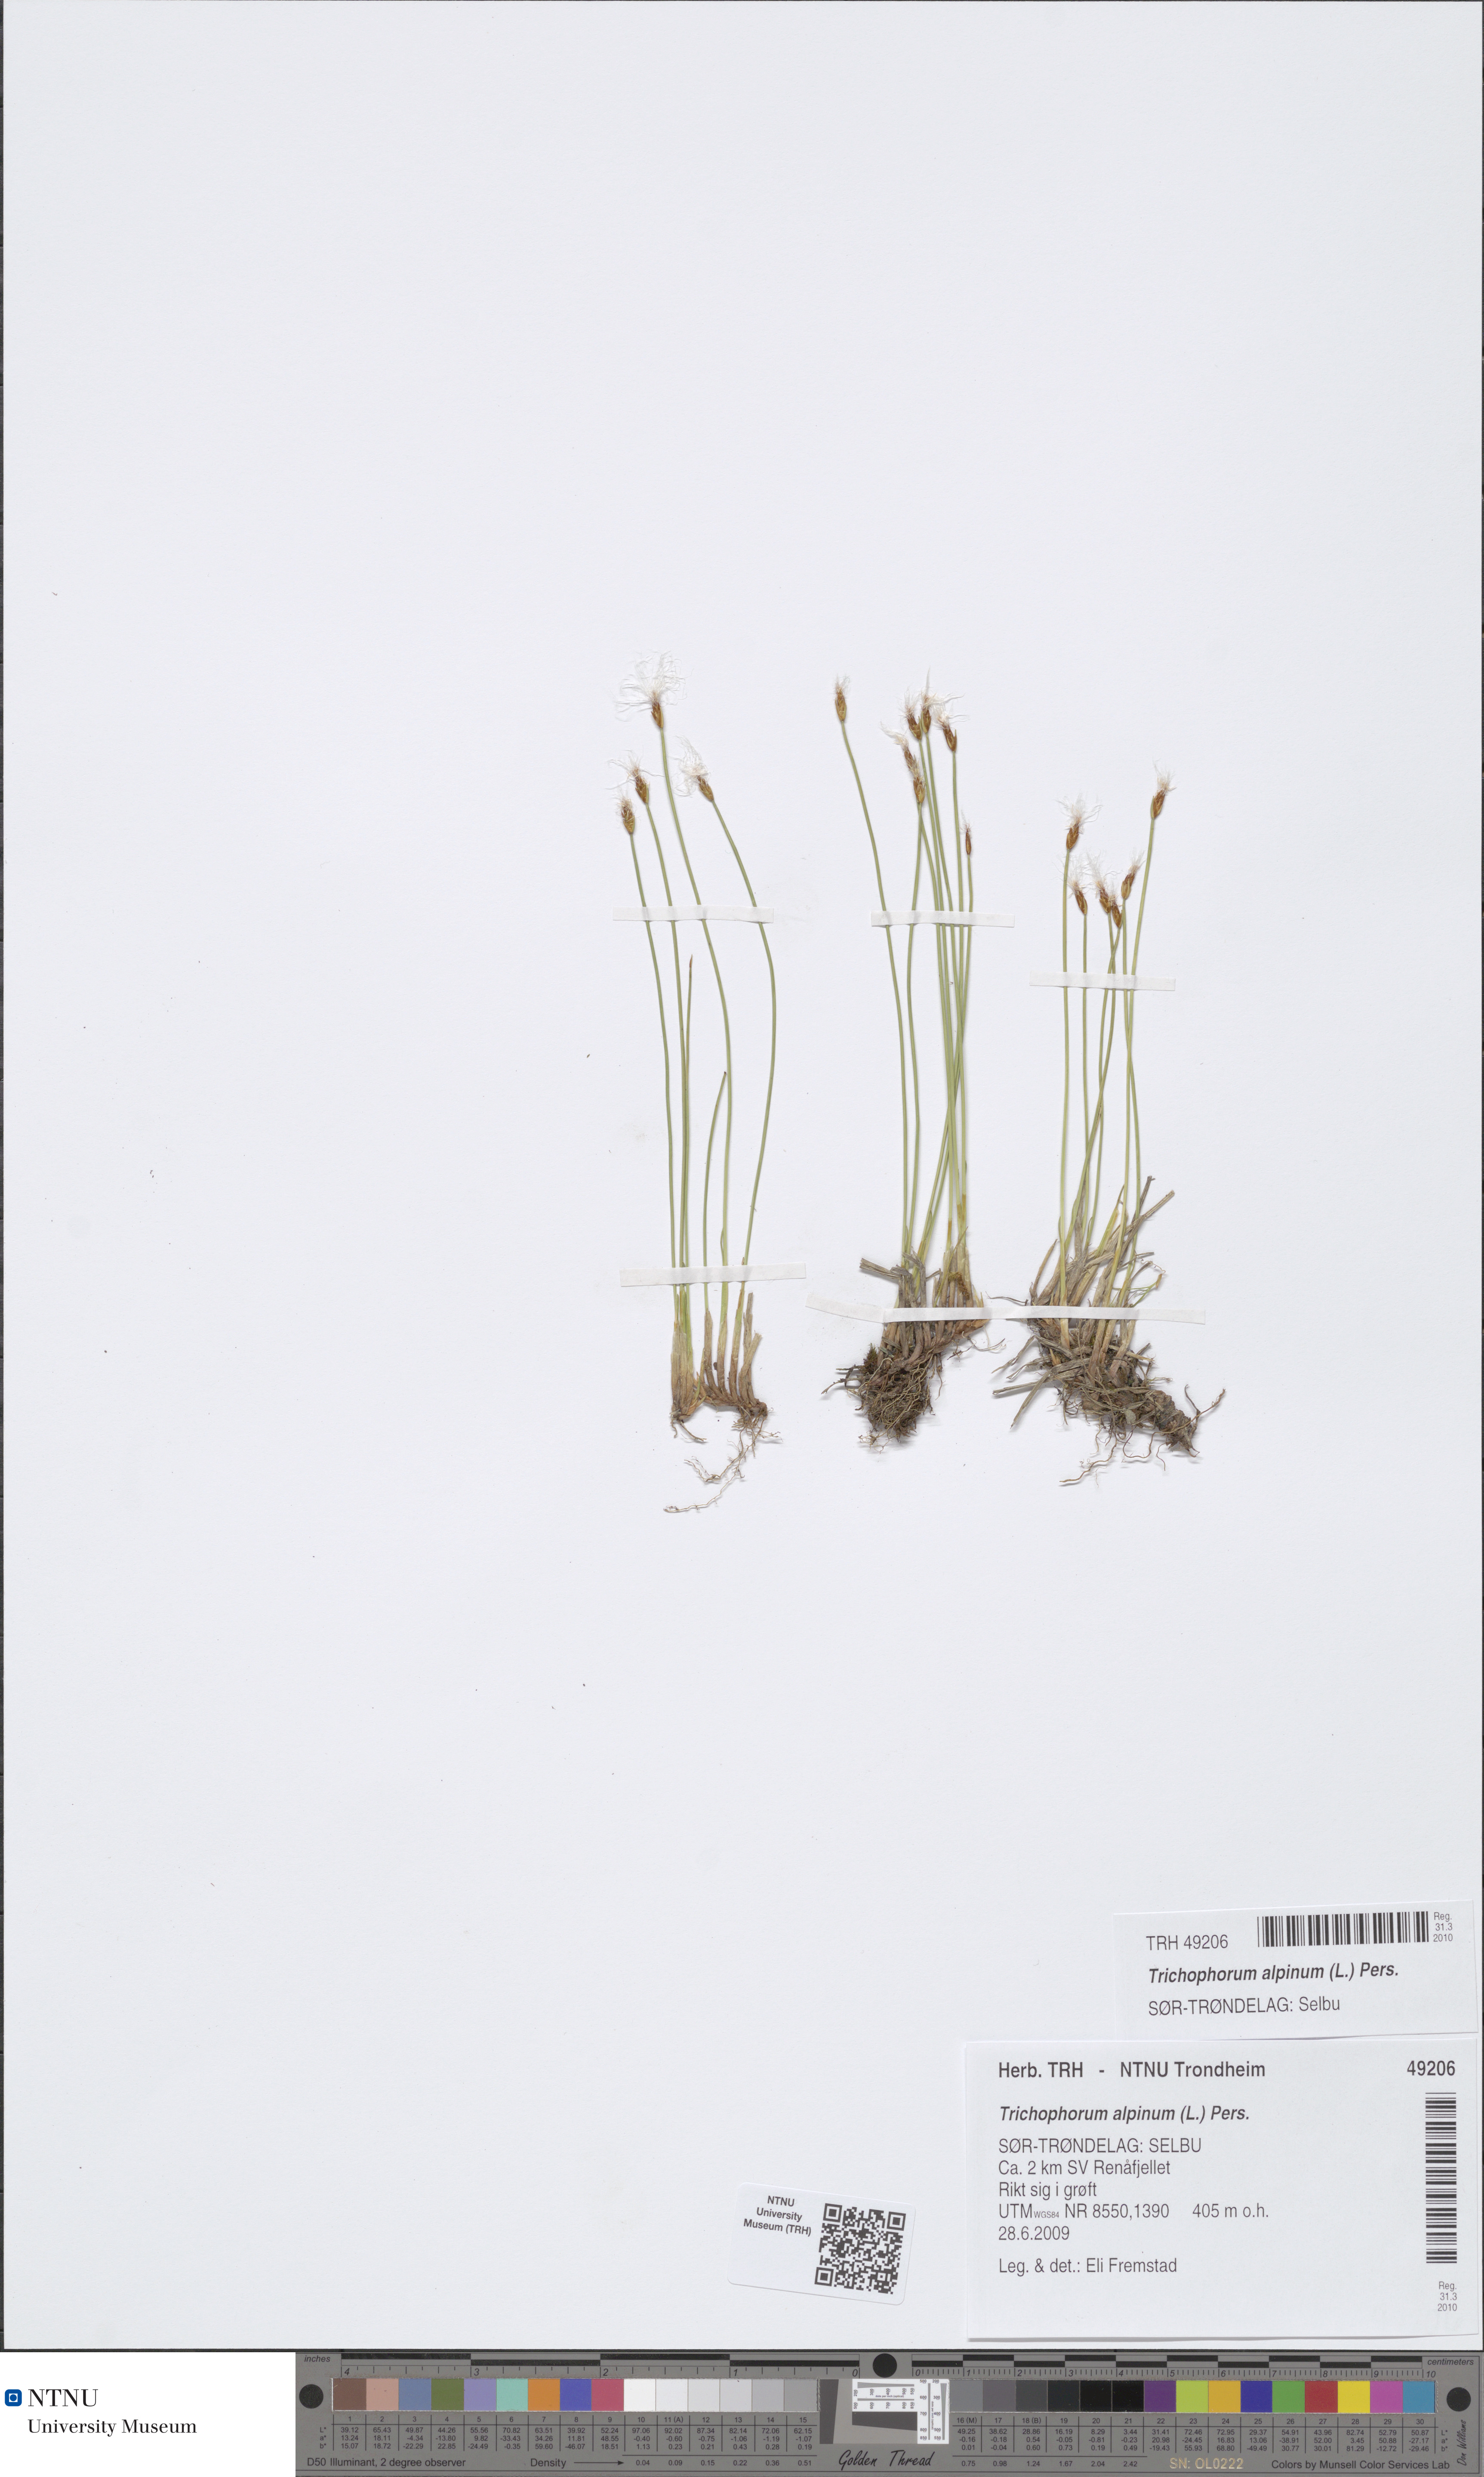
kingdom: Plantae
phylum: Tracheophyta
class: Liliopsida
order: Poales
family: Cyperaceae
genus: Trichophorum
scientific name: Trichophorum alpinum
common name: Alpine bulrush
